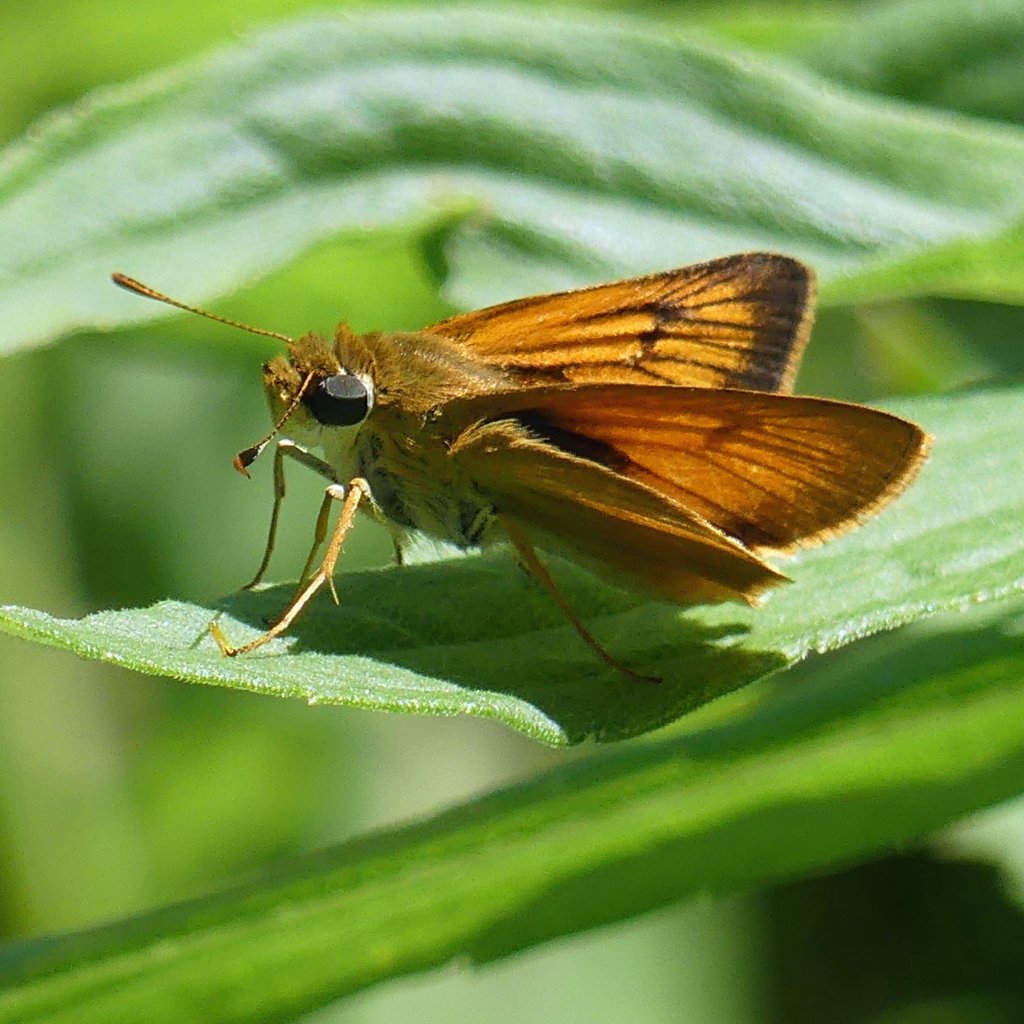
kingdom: Animalia
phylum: Arthropoda
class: Insecta
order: Lepidoptera
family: Hesperiidae
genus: Atrytone
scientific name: Atrytone delaware
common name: Delaware Skipper
